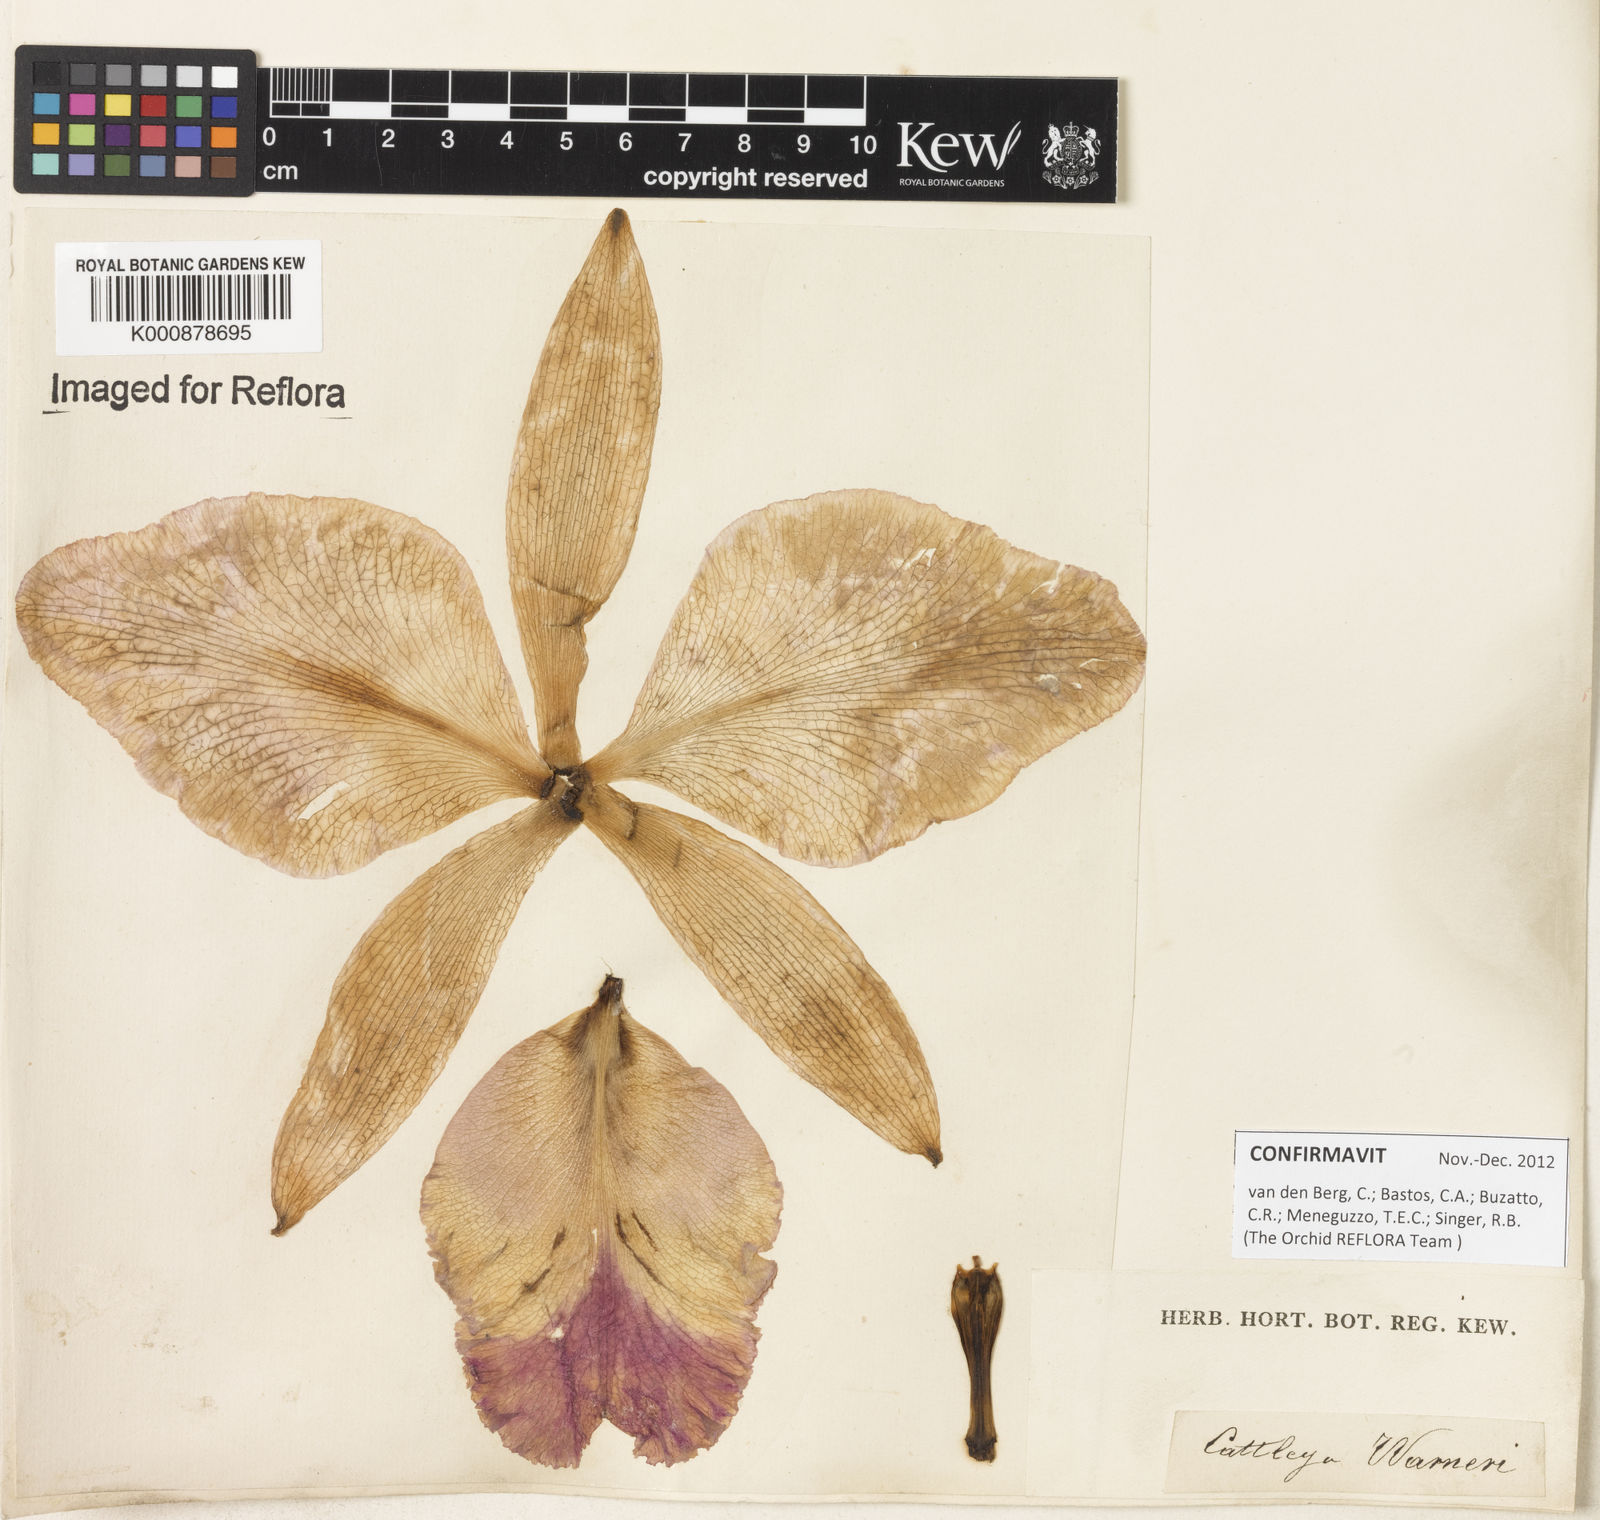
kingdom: Plantae
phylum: Tracheophyta
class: Liliopsida
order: Asparagales
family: Orchidaceae
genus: Cattleya
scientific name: Cattleya
